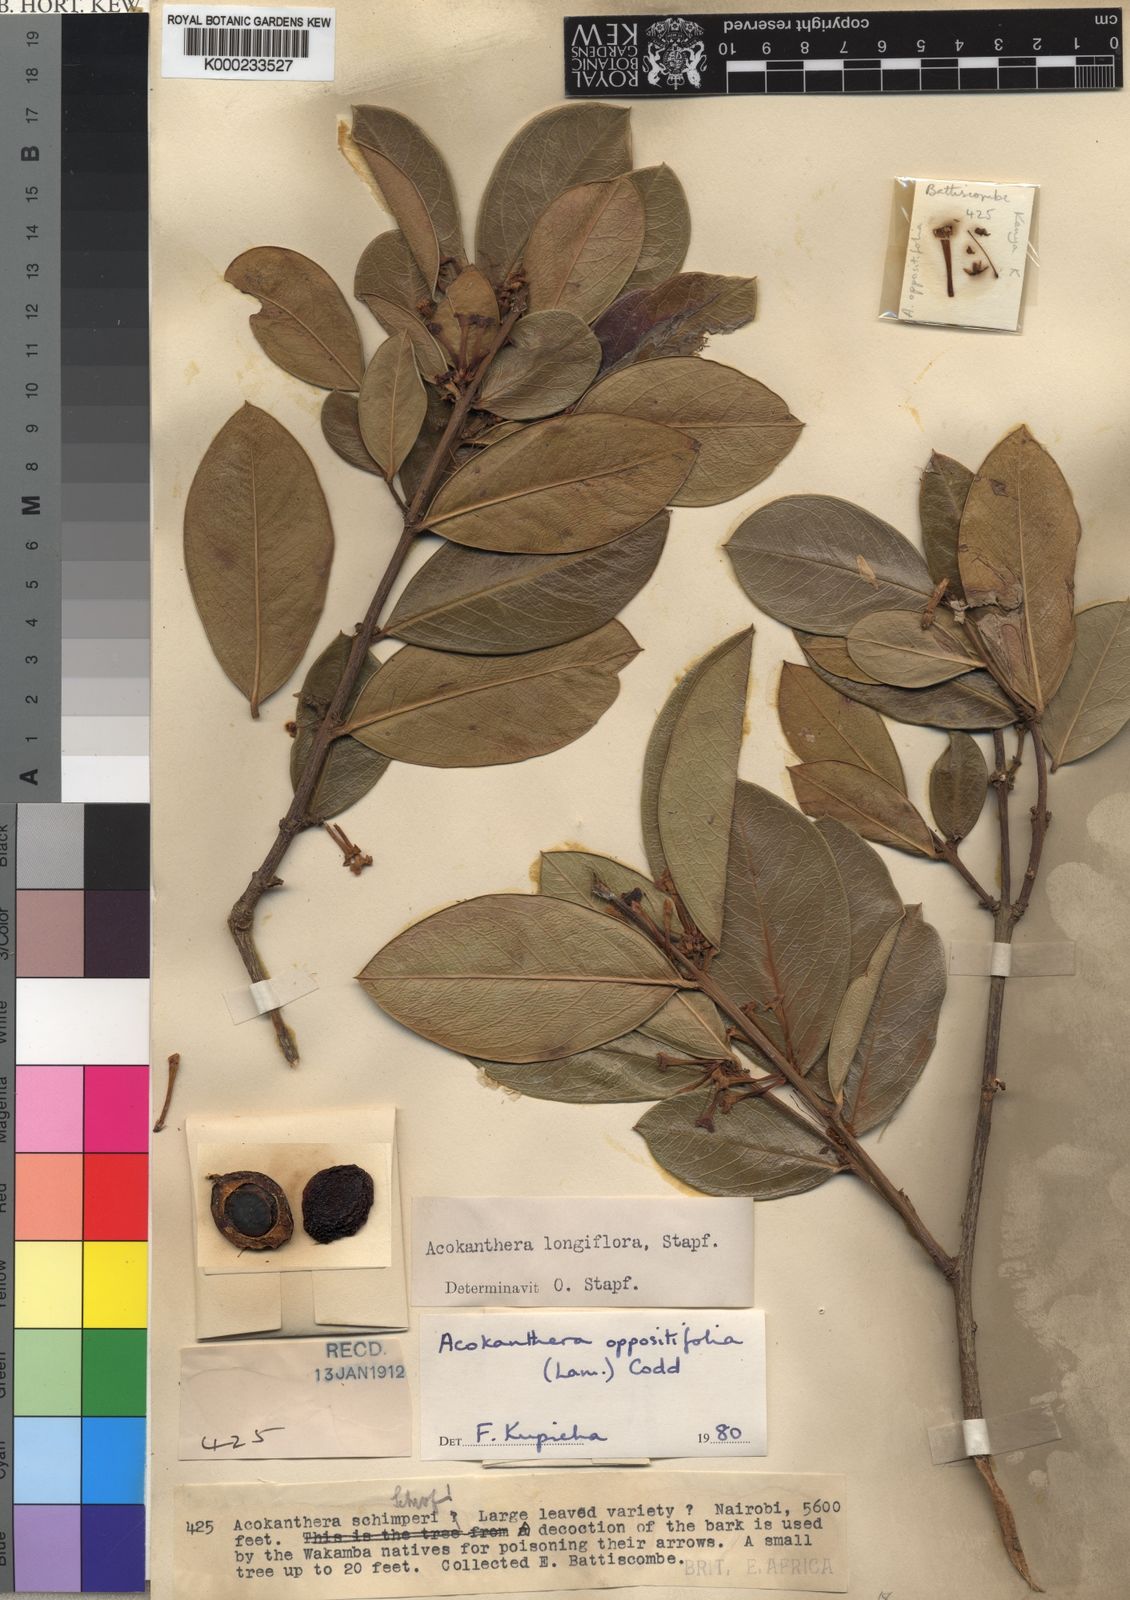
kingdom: Plantae
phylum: Tracheophyta
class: Magnoliopsida
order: Gentianales
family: Apocynaceae
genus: Acokanthera
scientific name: Acokanthera oppositifolia
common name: Bushman's-poison
